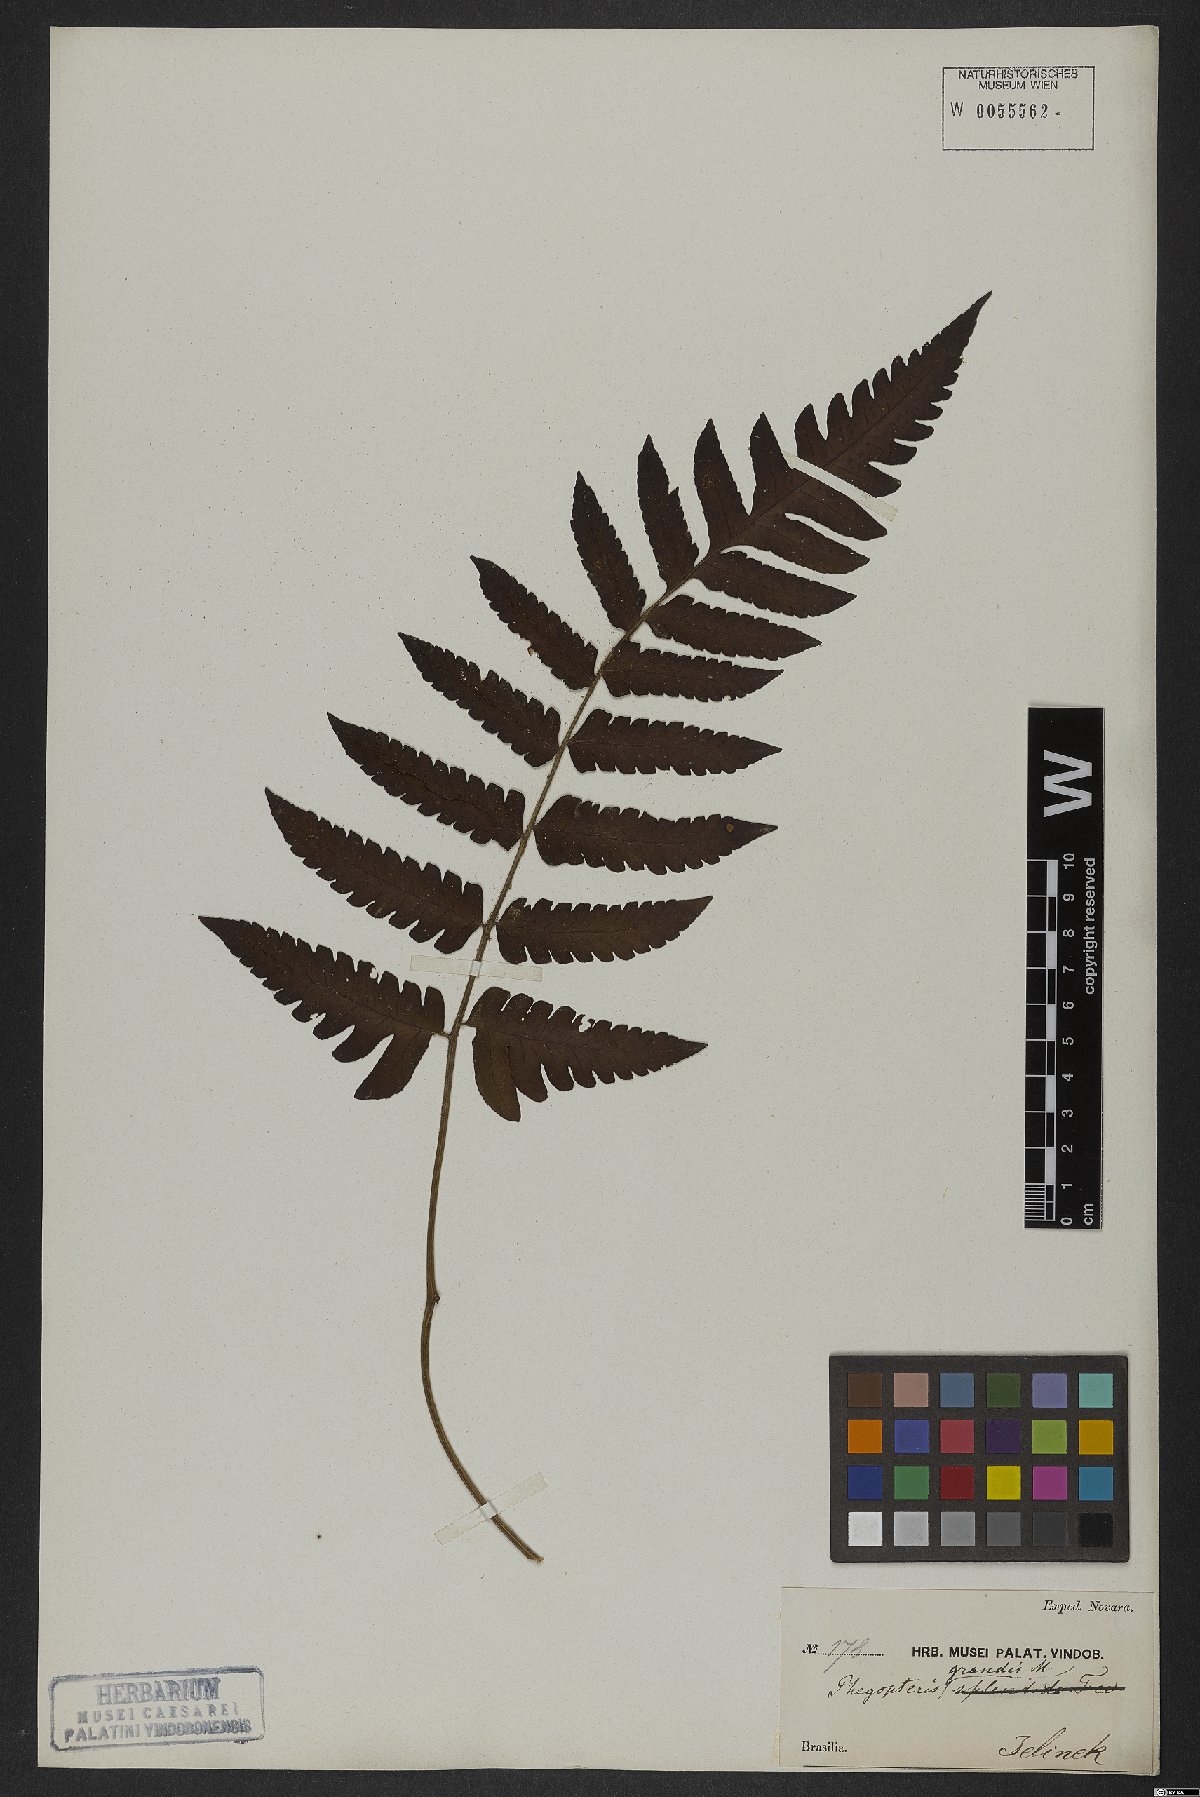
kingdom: Plantae
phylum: Tracheophyta
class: Polypodiopsida
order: Polypodiales
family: Dryopteridaceae
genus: Megalastrum
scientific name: Megalastrum grande
